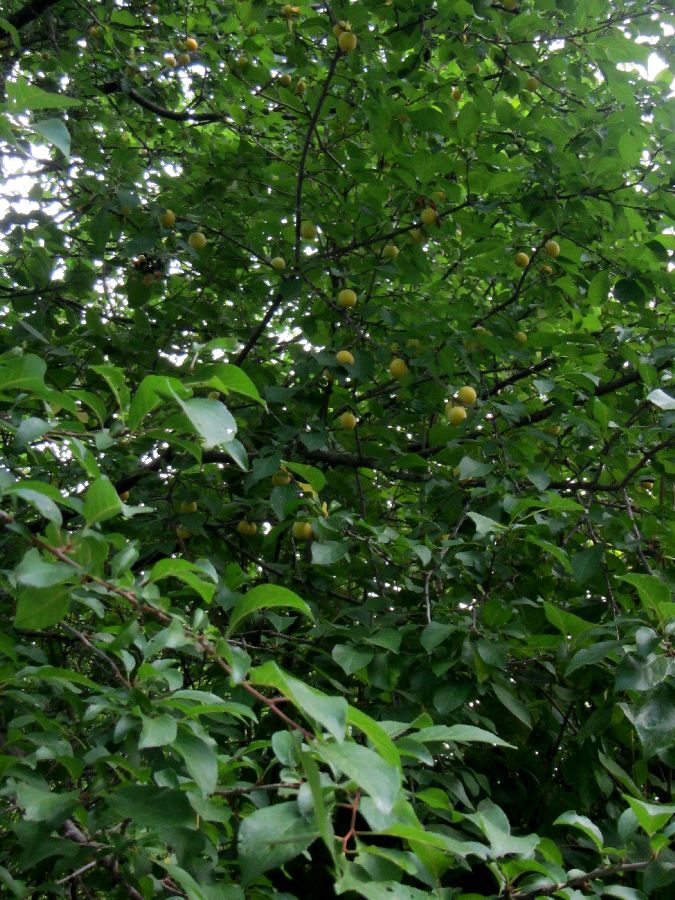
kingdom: Plantae
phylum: Tracheophyta
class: Magnoliopsida
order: Rosales
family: Rosaceae
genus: Prunus
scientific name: Prunus cerasifera
